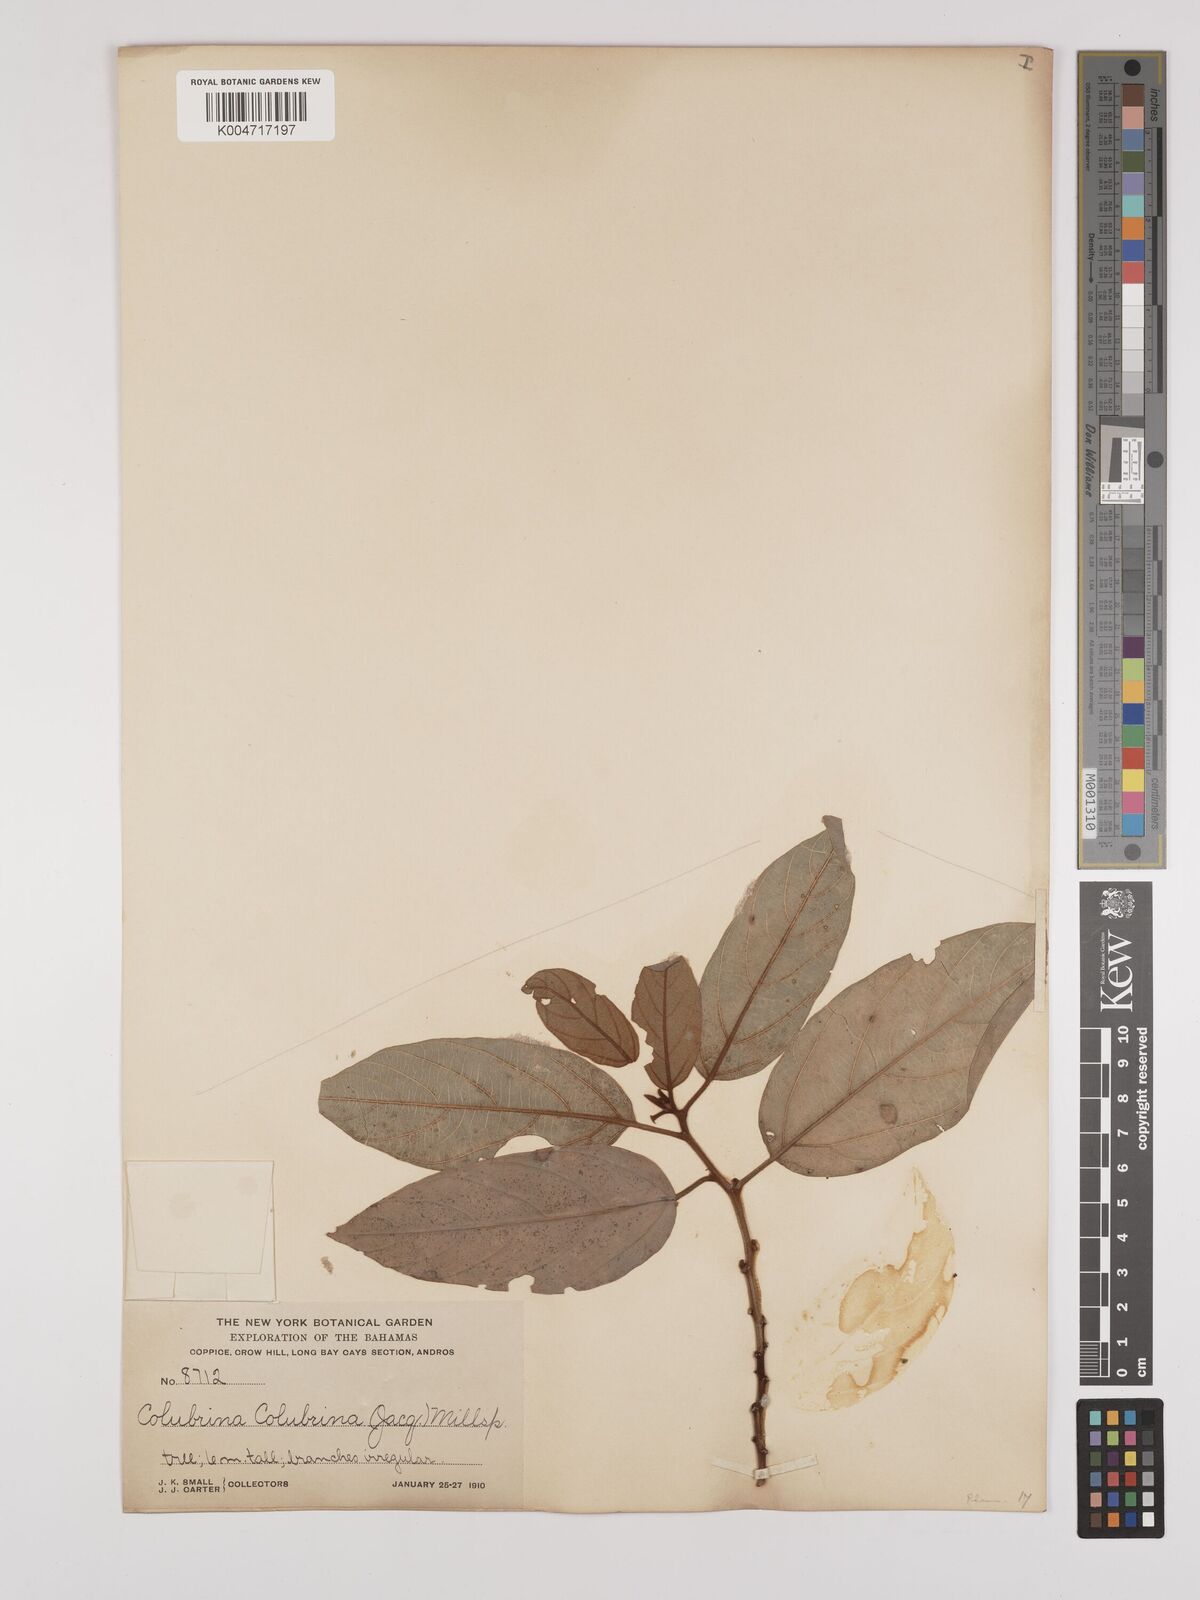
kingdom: Plantae
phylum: Tracheophyta
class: Magnoliopsida
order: Rosales
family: Rhamnaceae
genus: Colubrina
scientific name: Colubrina arborescens
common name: Wild coffee
